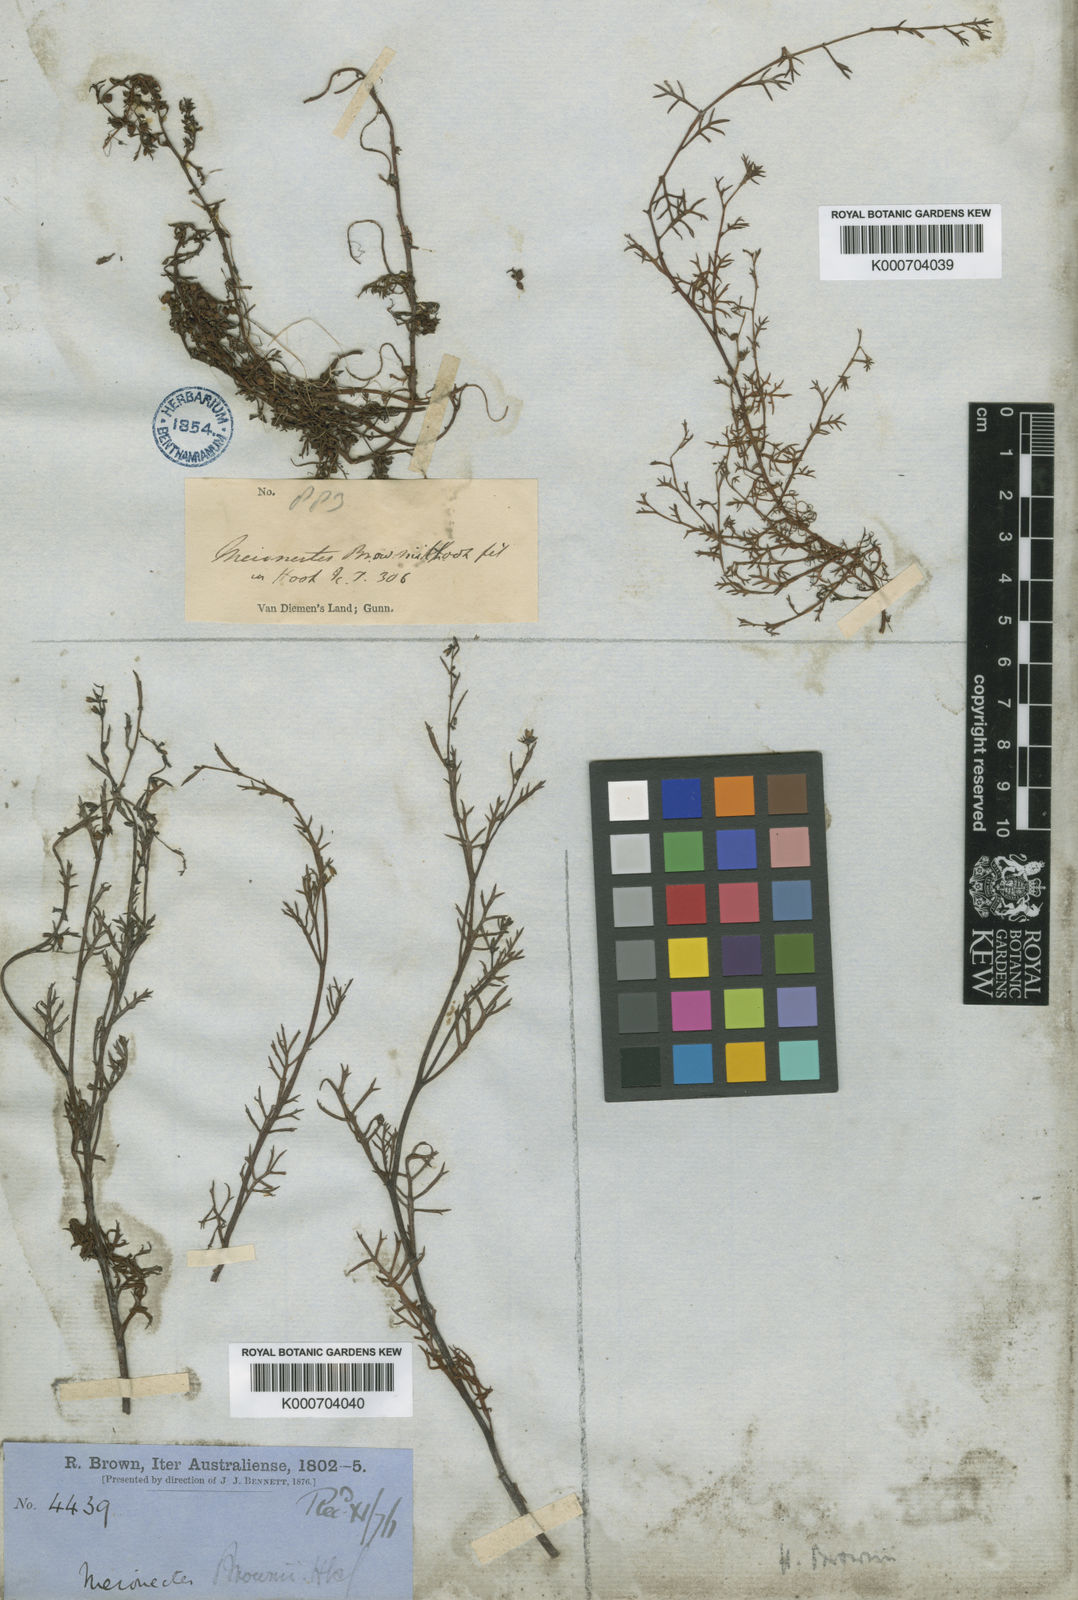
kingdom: Plantae
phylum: Tracheophyta
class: Magnoliopsida
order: Saxifragales
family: Haloragaceae
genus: Haloragis
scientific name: Haloragis brownii
